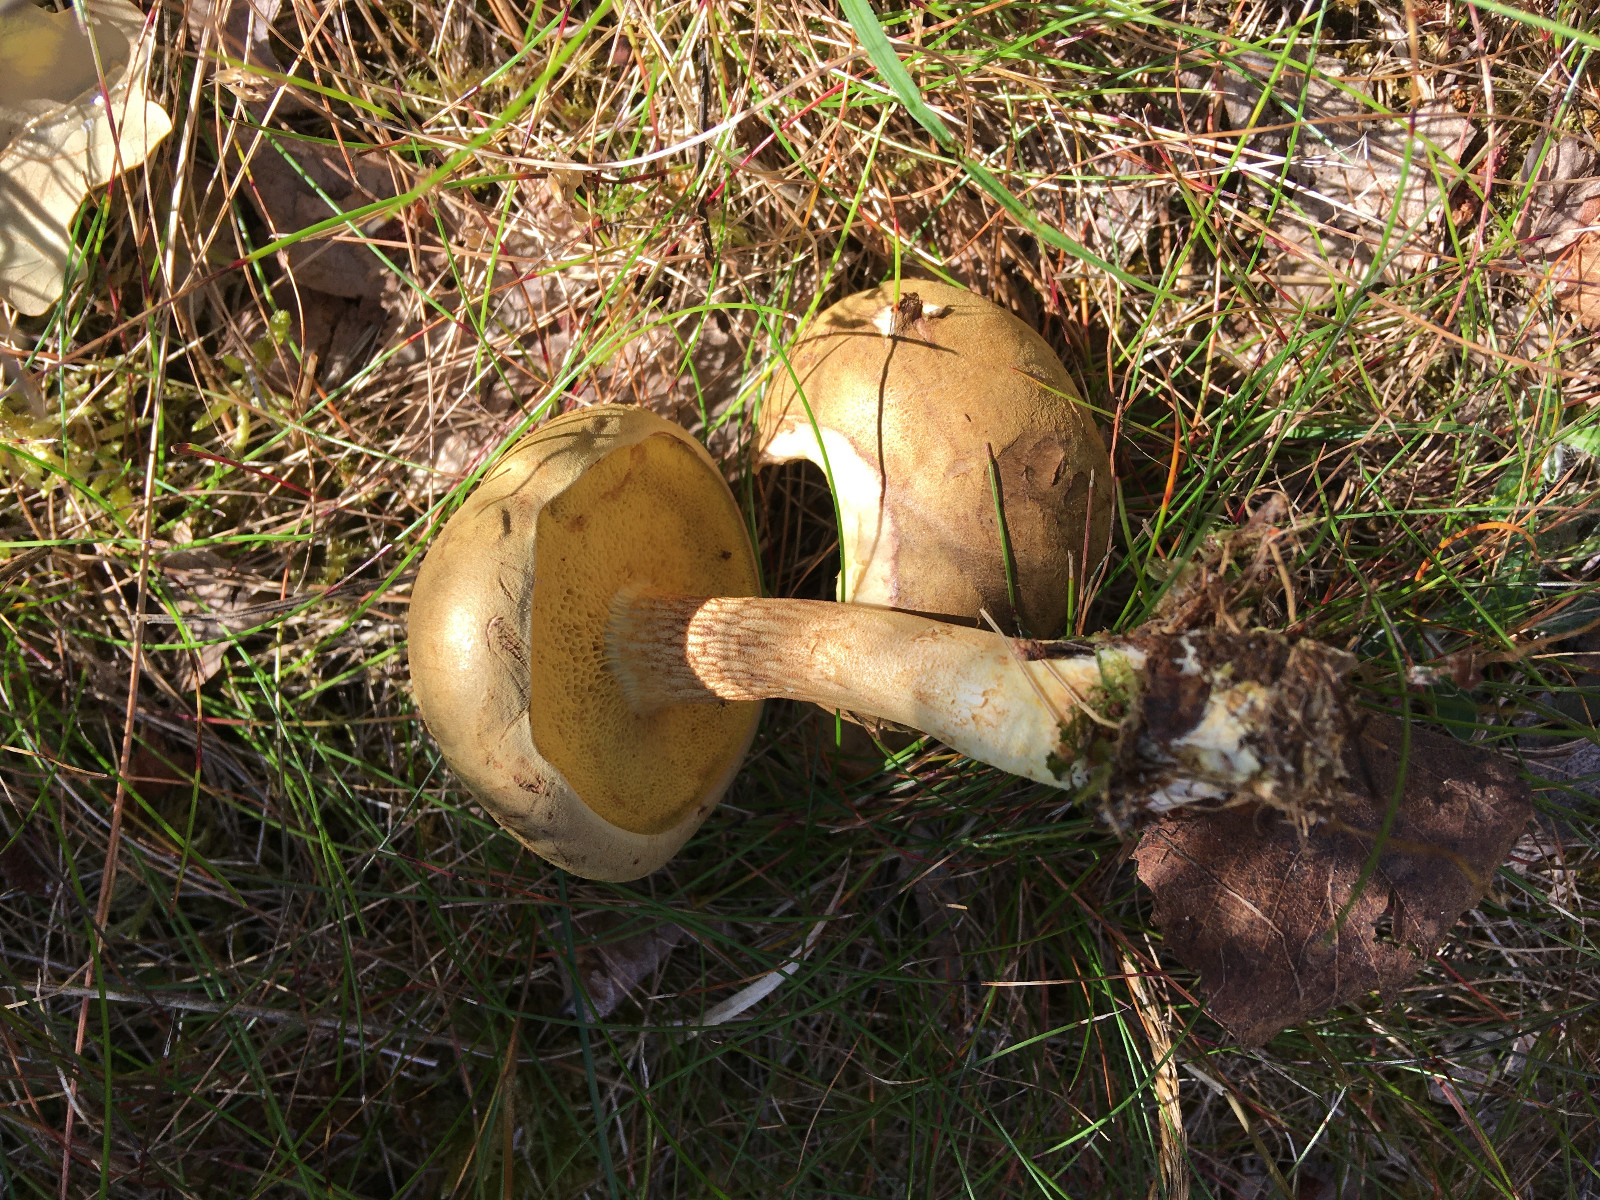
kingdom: Fungi
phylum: Basidiomycota
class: Agaricomycetes
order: Boletales
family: Boletaceae
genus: Xerocomus
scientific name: Xerocomus
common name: filtrørhat
